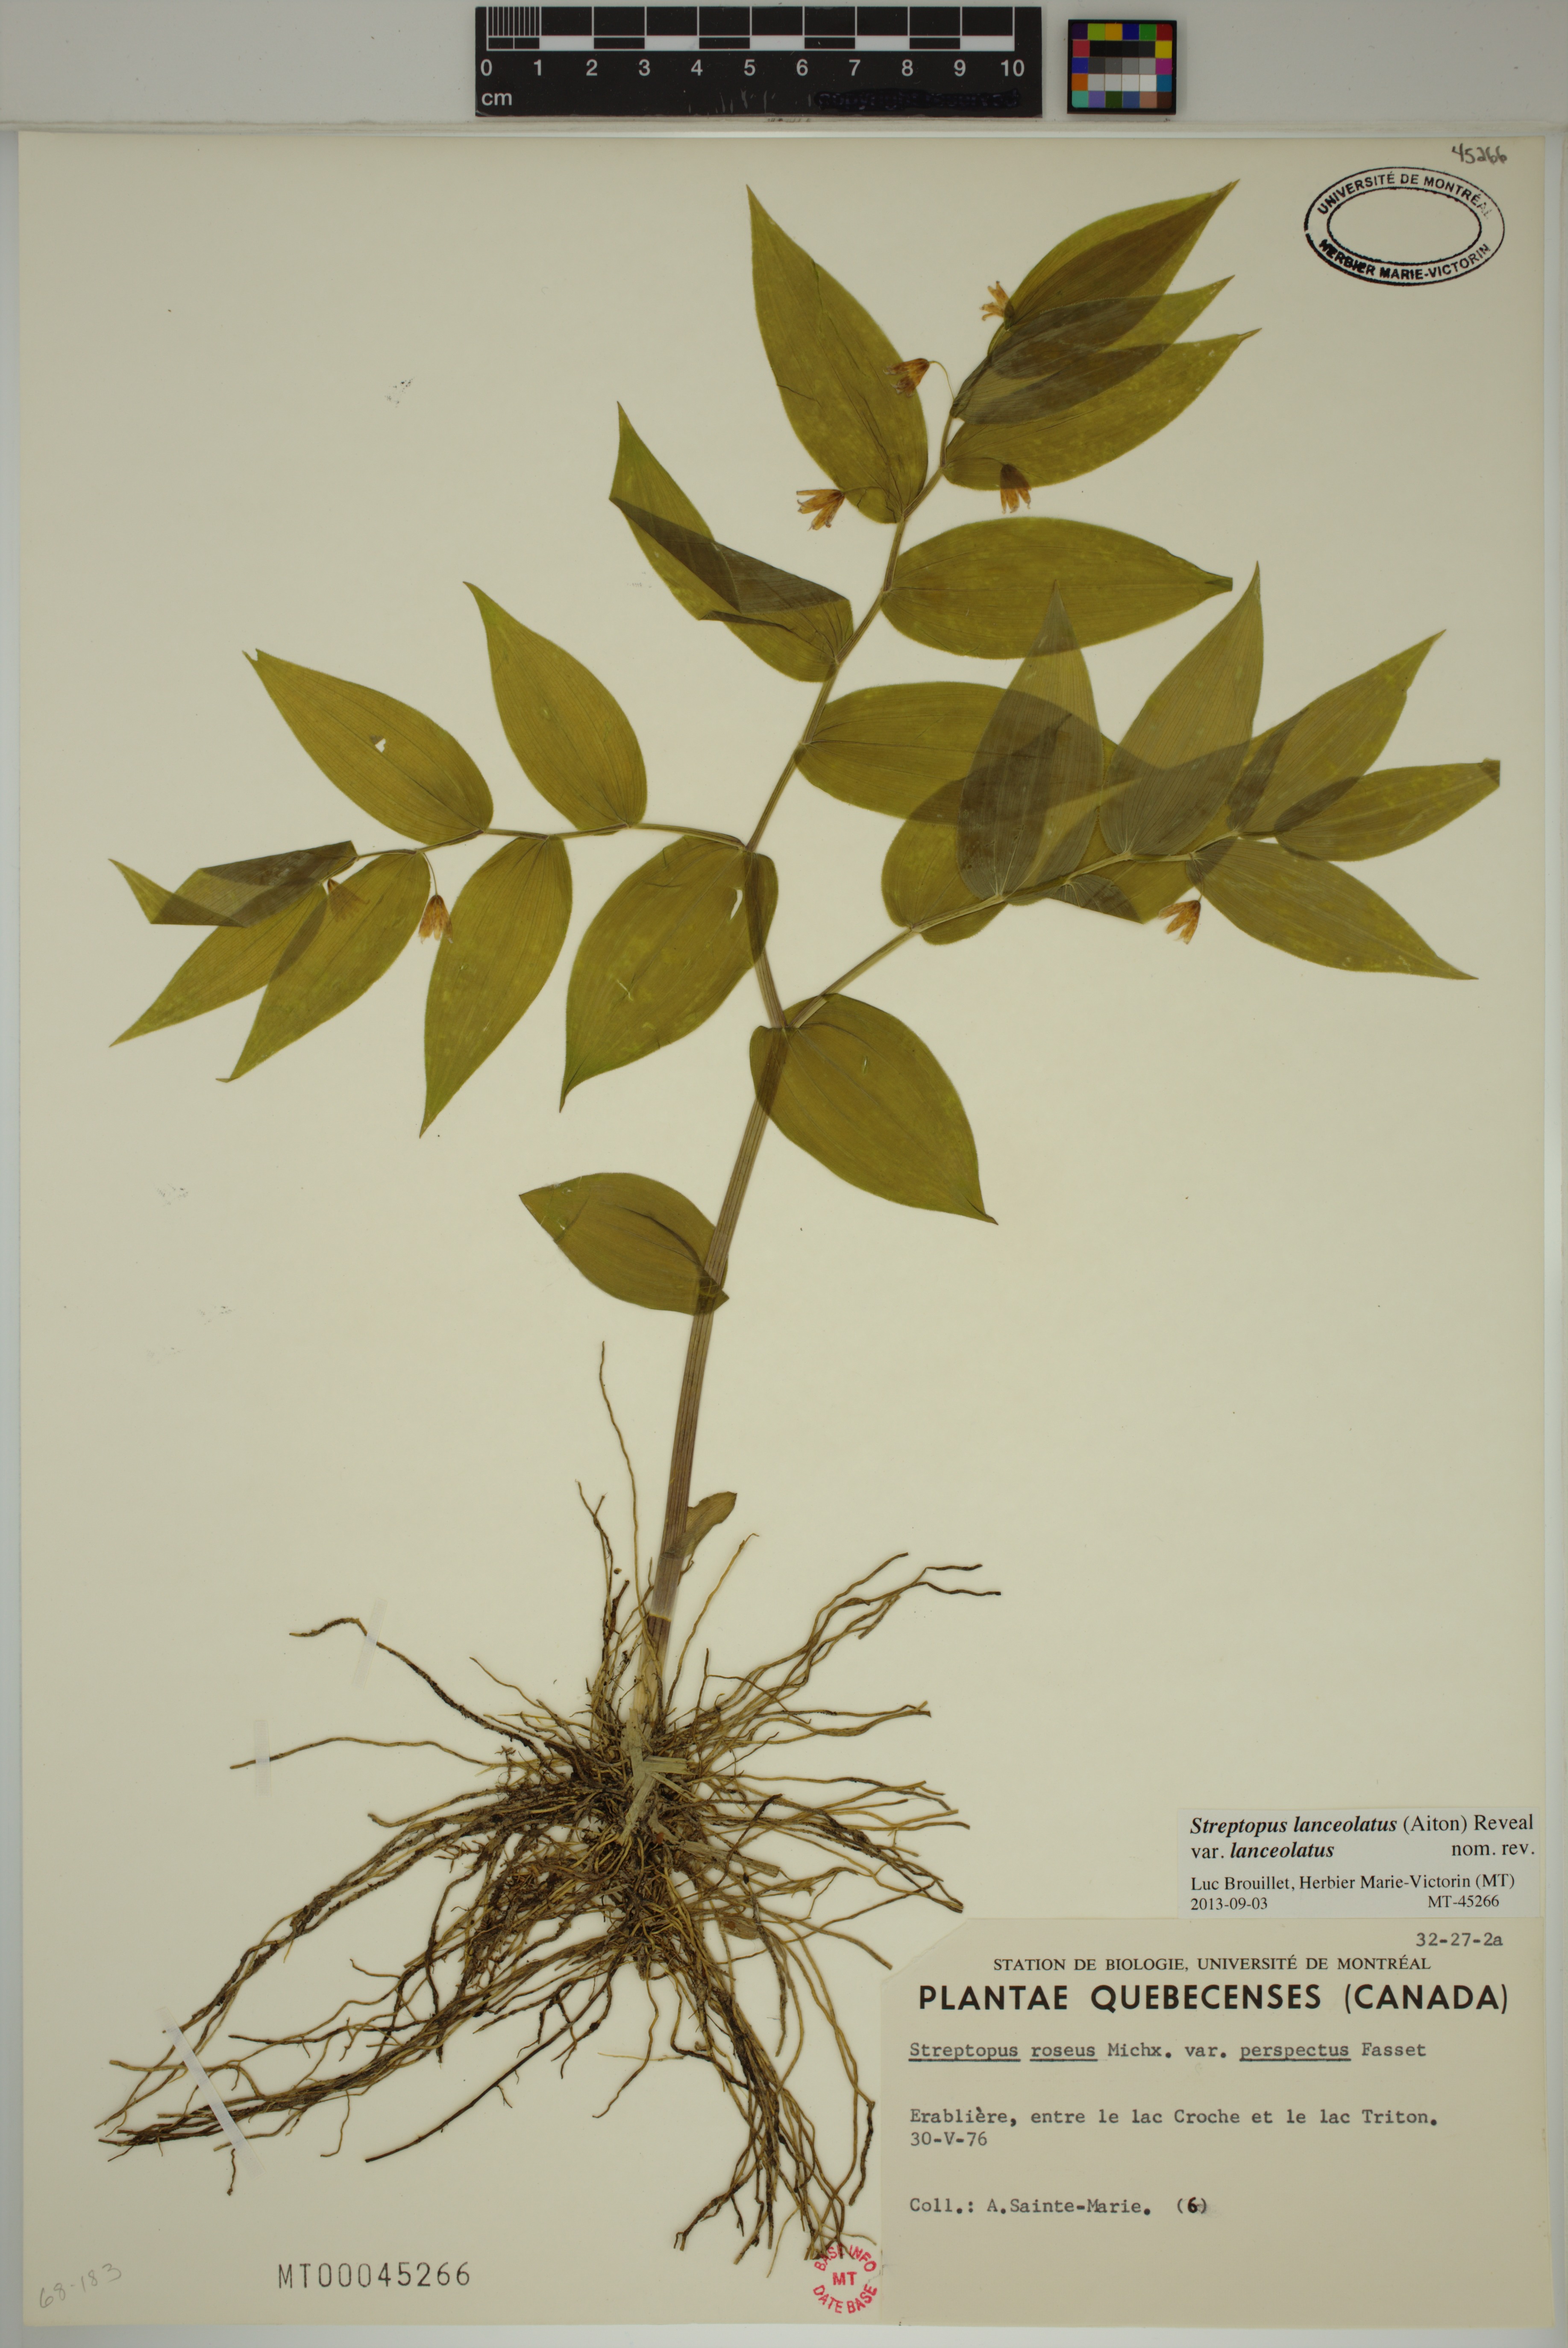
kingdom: Plantae
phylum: Tracheophyta
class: Liliopsida
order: Liliales
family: Liliaceae
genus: Streptopus
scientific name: Streptopus lanceolatus
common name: Rose mandarin
